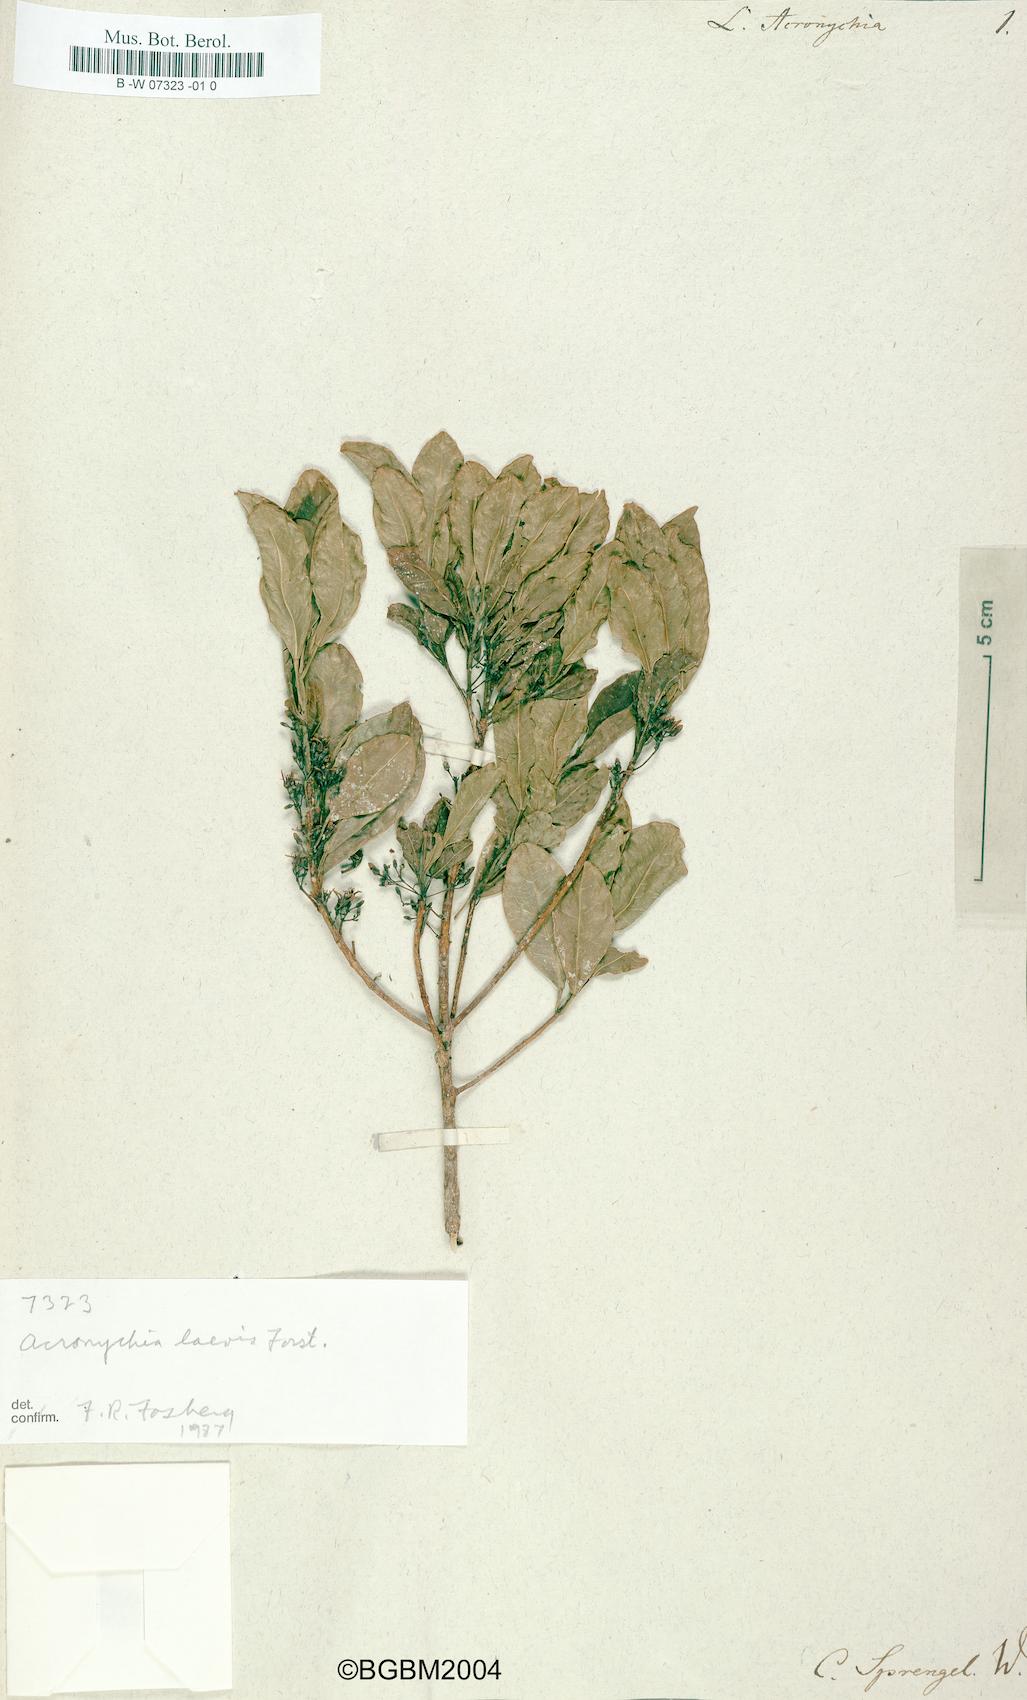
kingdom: Plantae
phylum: Tracheophyta
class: Magnoliopsida
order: Myrtales
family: Lythraceae
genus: Lawsonia
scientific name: Lawsonia
